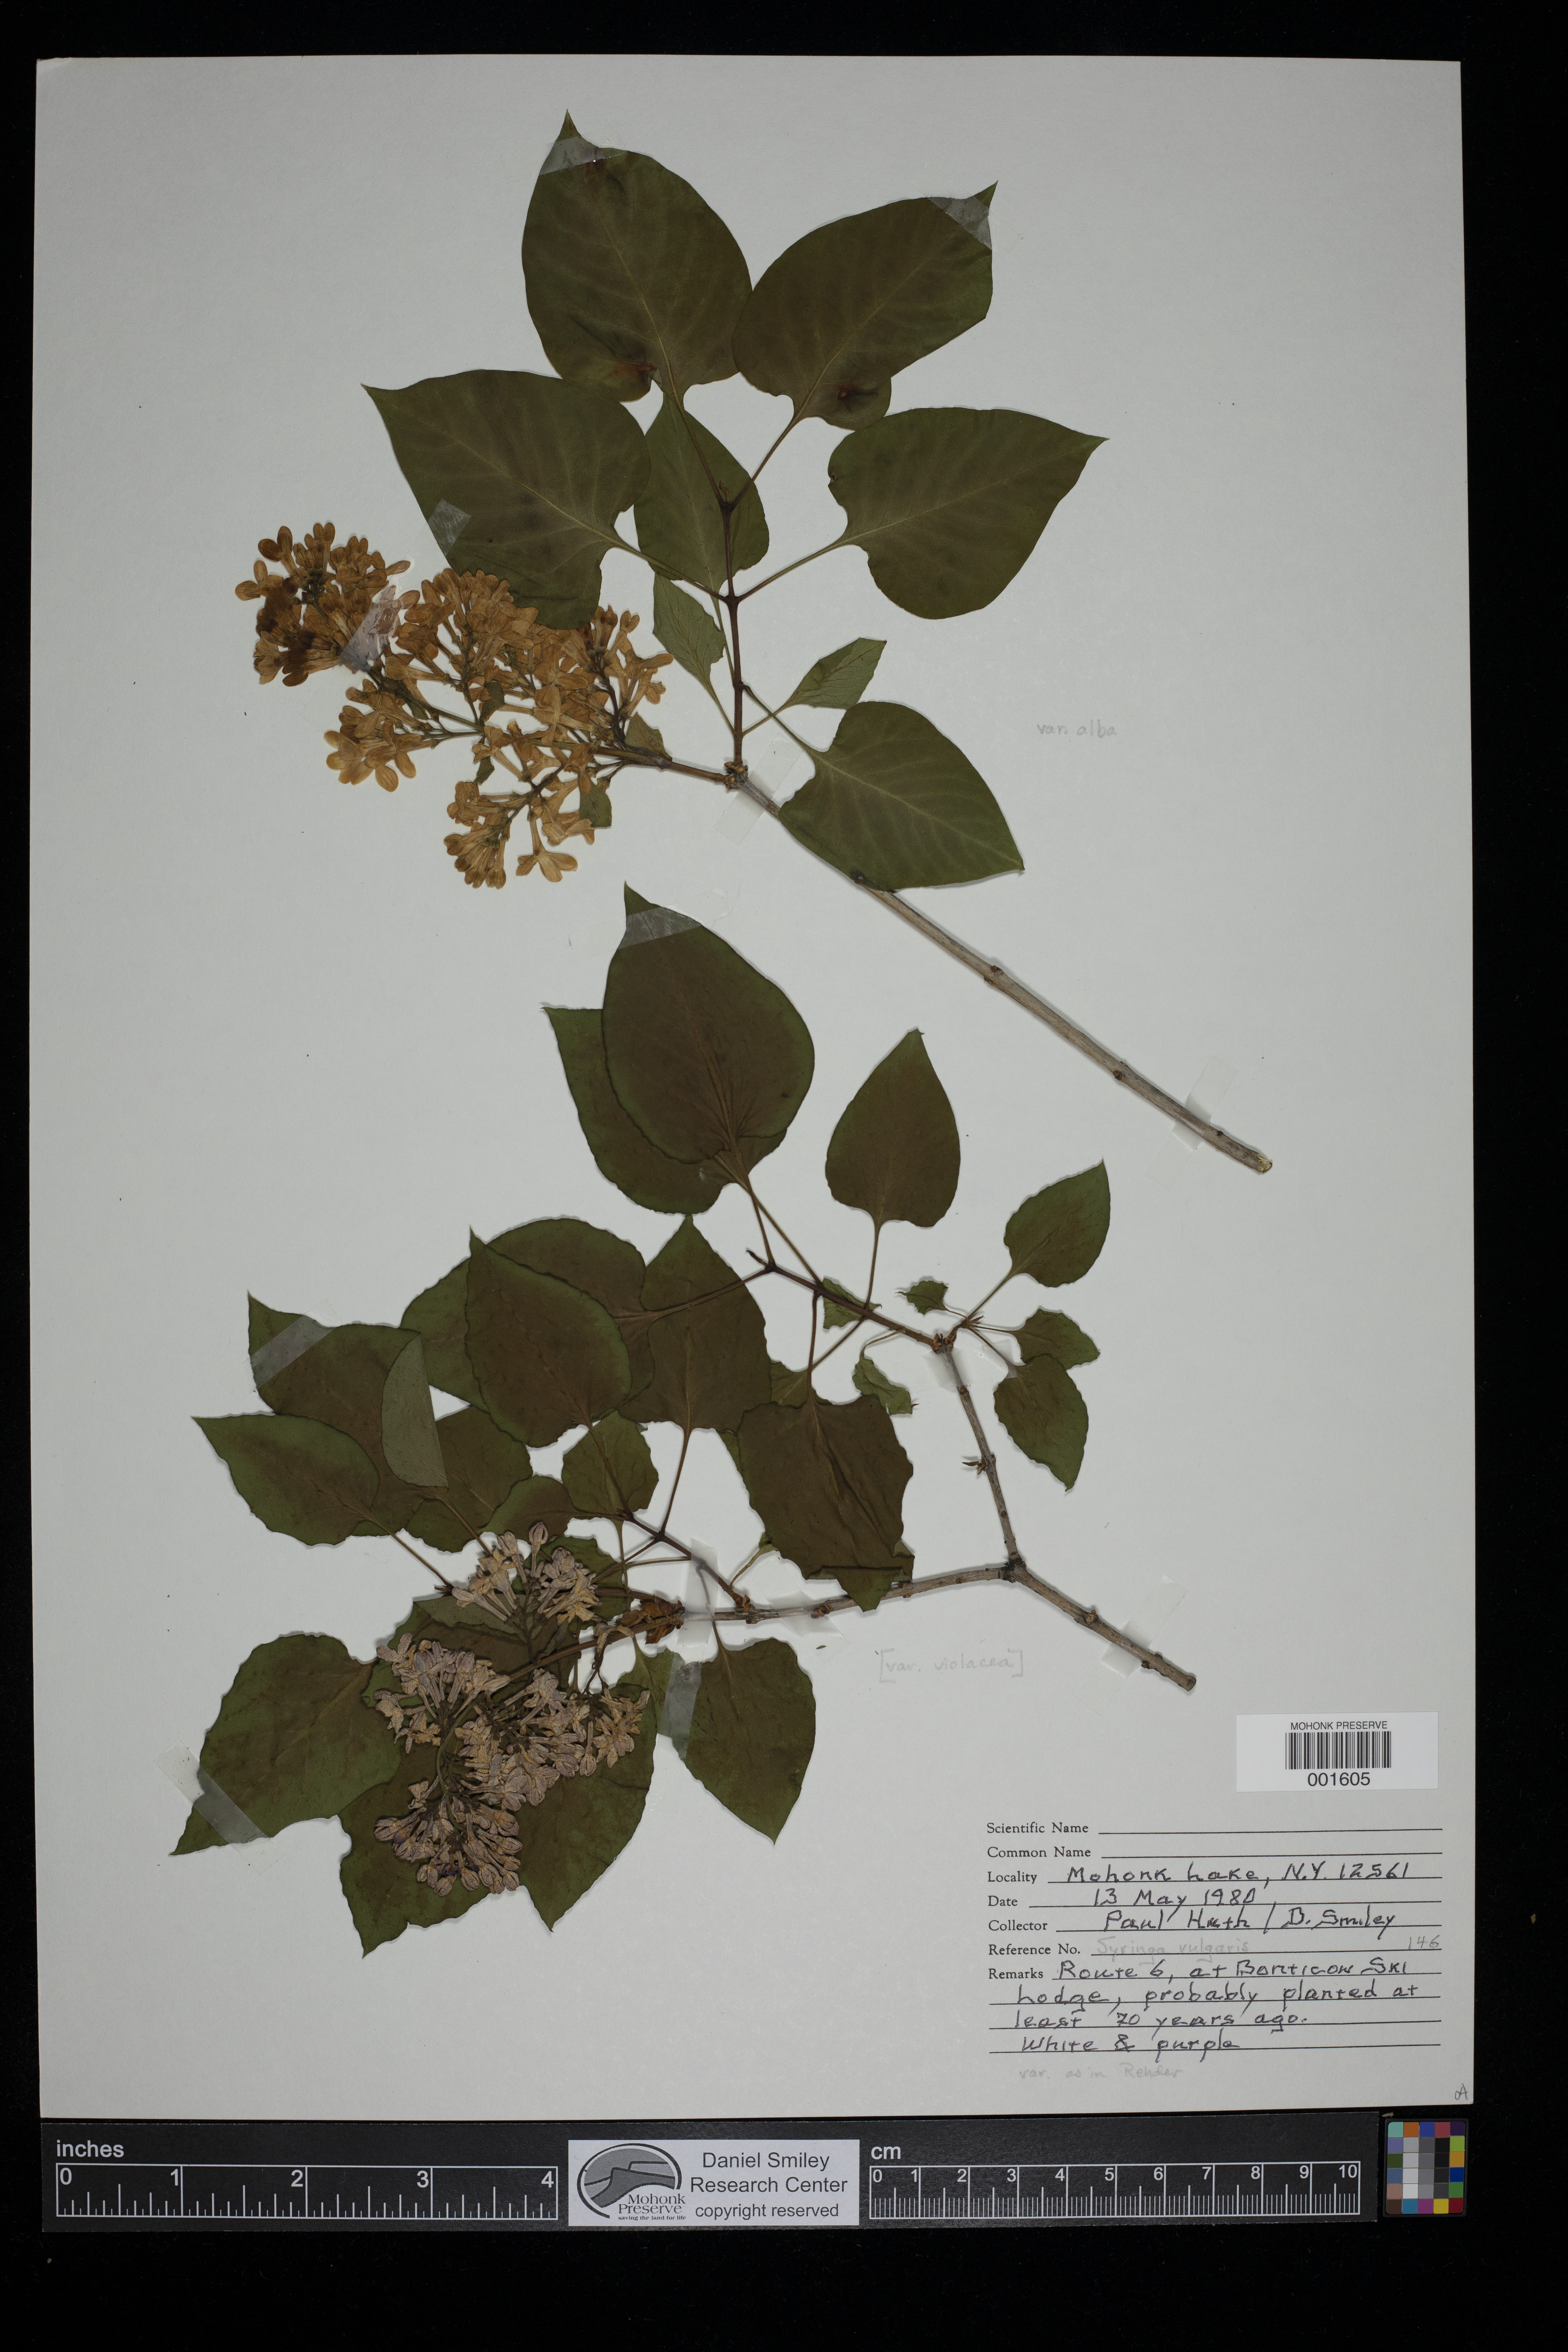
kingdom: Plantae
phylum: Tracheophyta
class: Magnoliopsida
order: Lamiales
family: Oleaceae
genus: Syringa
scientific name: Syringa vulgaris
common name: Common lilac
